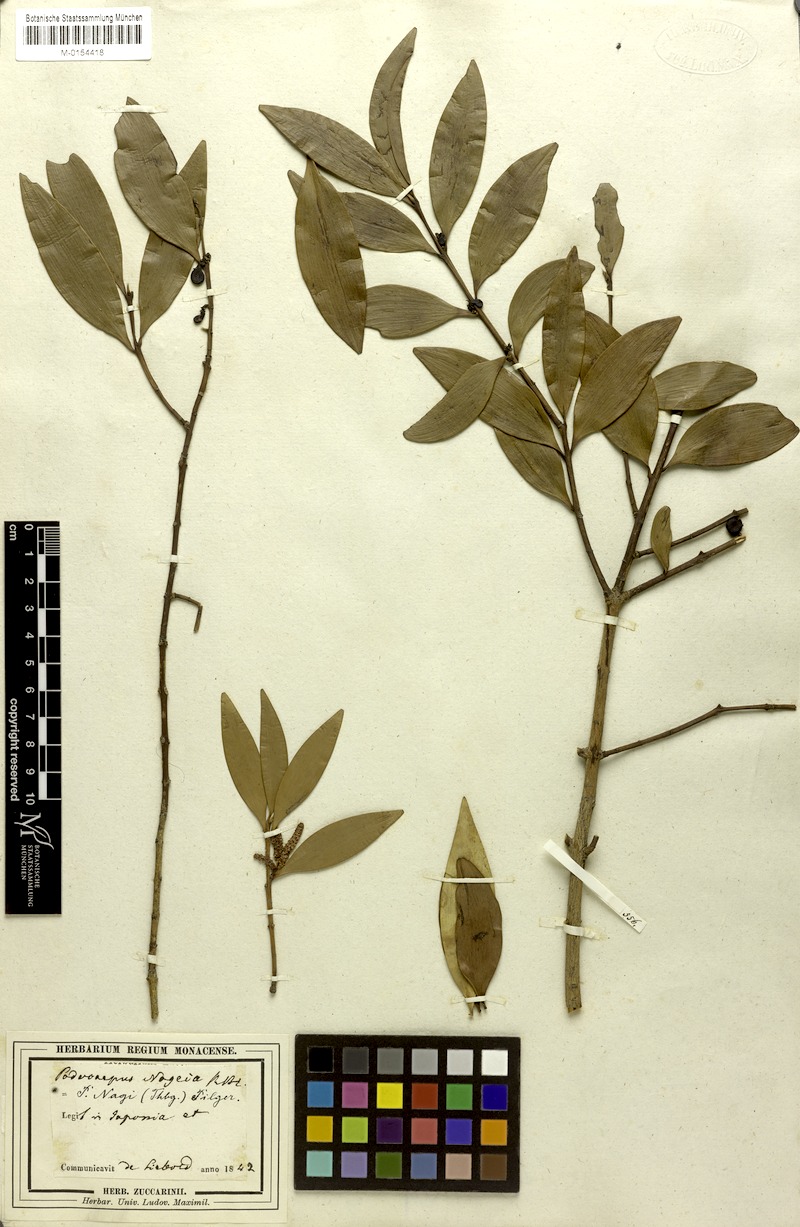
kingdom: Plantae
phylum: Tracheophyta
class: Pinopsida
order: Pinales
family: Podocarpaceae
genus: Nageia
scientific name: Nageia nagi
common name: Kaphal
